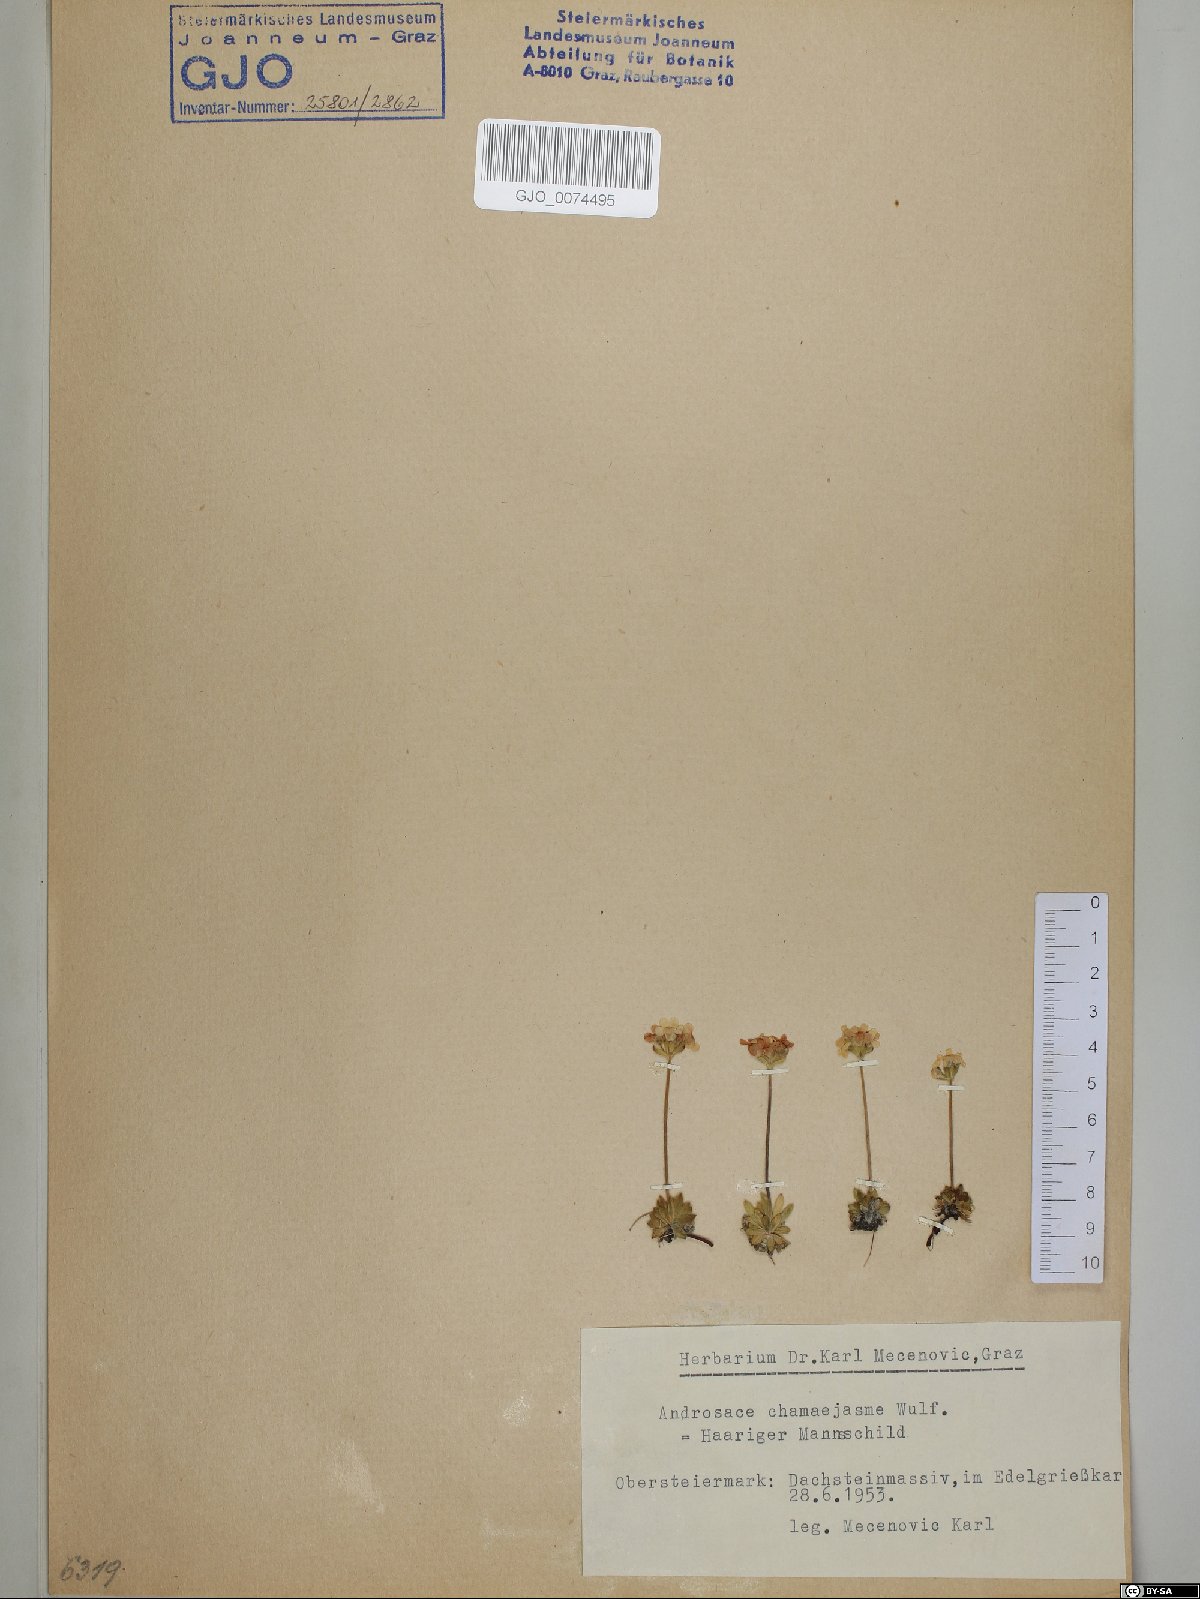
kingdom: Plantae
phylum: Tracheophyta
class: Magnoliopsida
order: Ericales
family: Primulaceae
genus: Androsace
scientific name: Androsace chamaejasme
